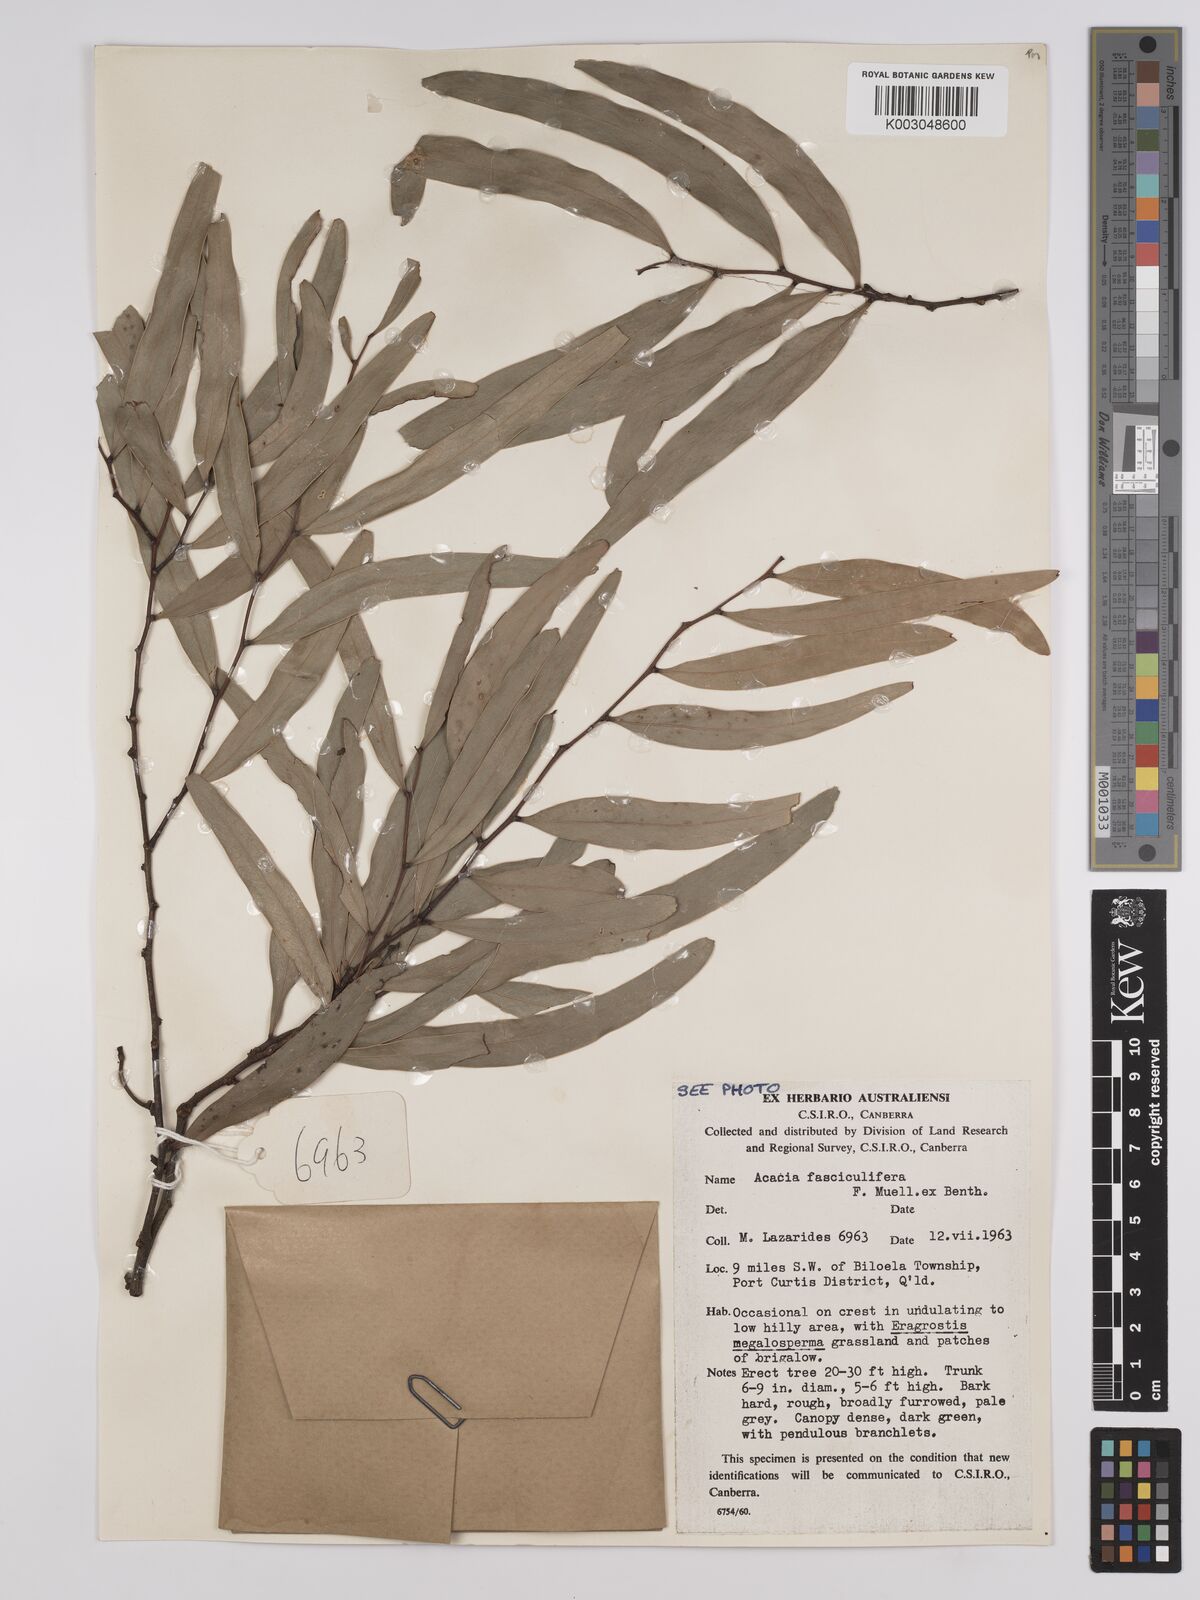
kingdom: Plantae
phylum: Tracheophyta
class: Magnoliopsida
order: Fabales
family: Fabaceae
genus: Acacia
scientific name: Acacia fasciculifera
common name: Scalybark
